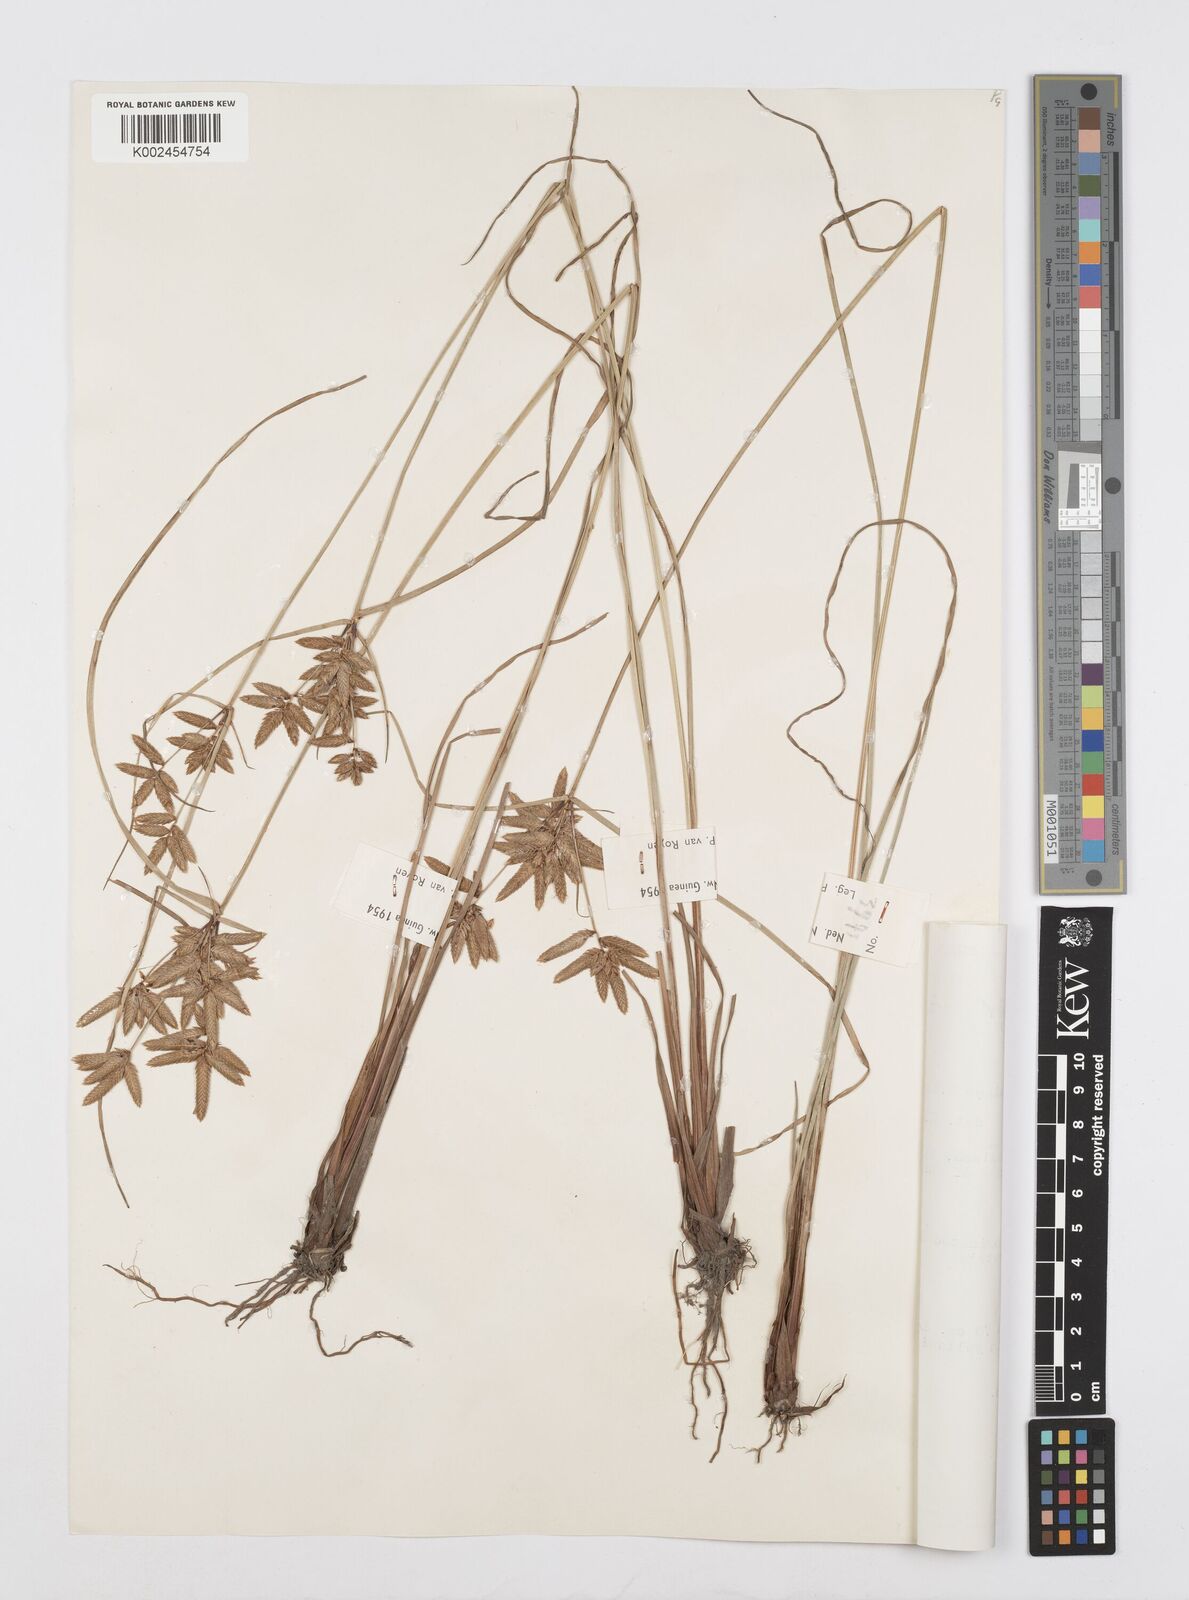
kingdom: Plantae
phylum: Tracheophyta
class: Liliopsida
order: Poales
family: Cyperaceae
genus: Cyperus
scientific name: Cyperus unioloides
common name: Uniola flatsedge
